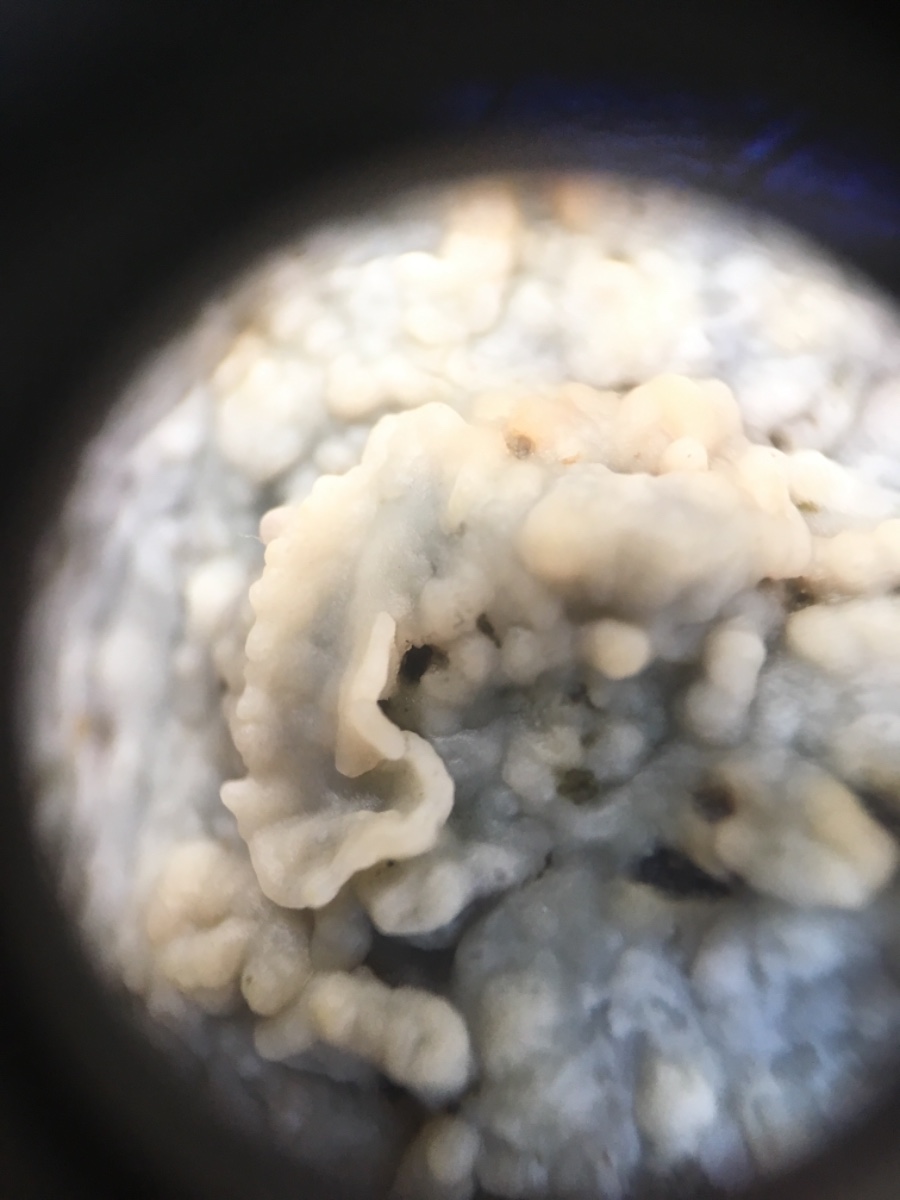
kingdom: Fungi
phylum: Basidiomycota
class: Agaricomycetes
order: Corticiales
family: Corticiaceae
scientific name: Corticiaceae
